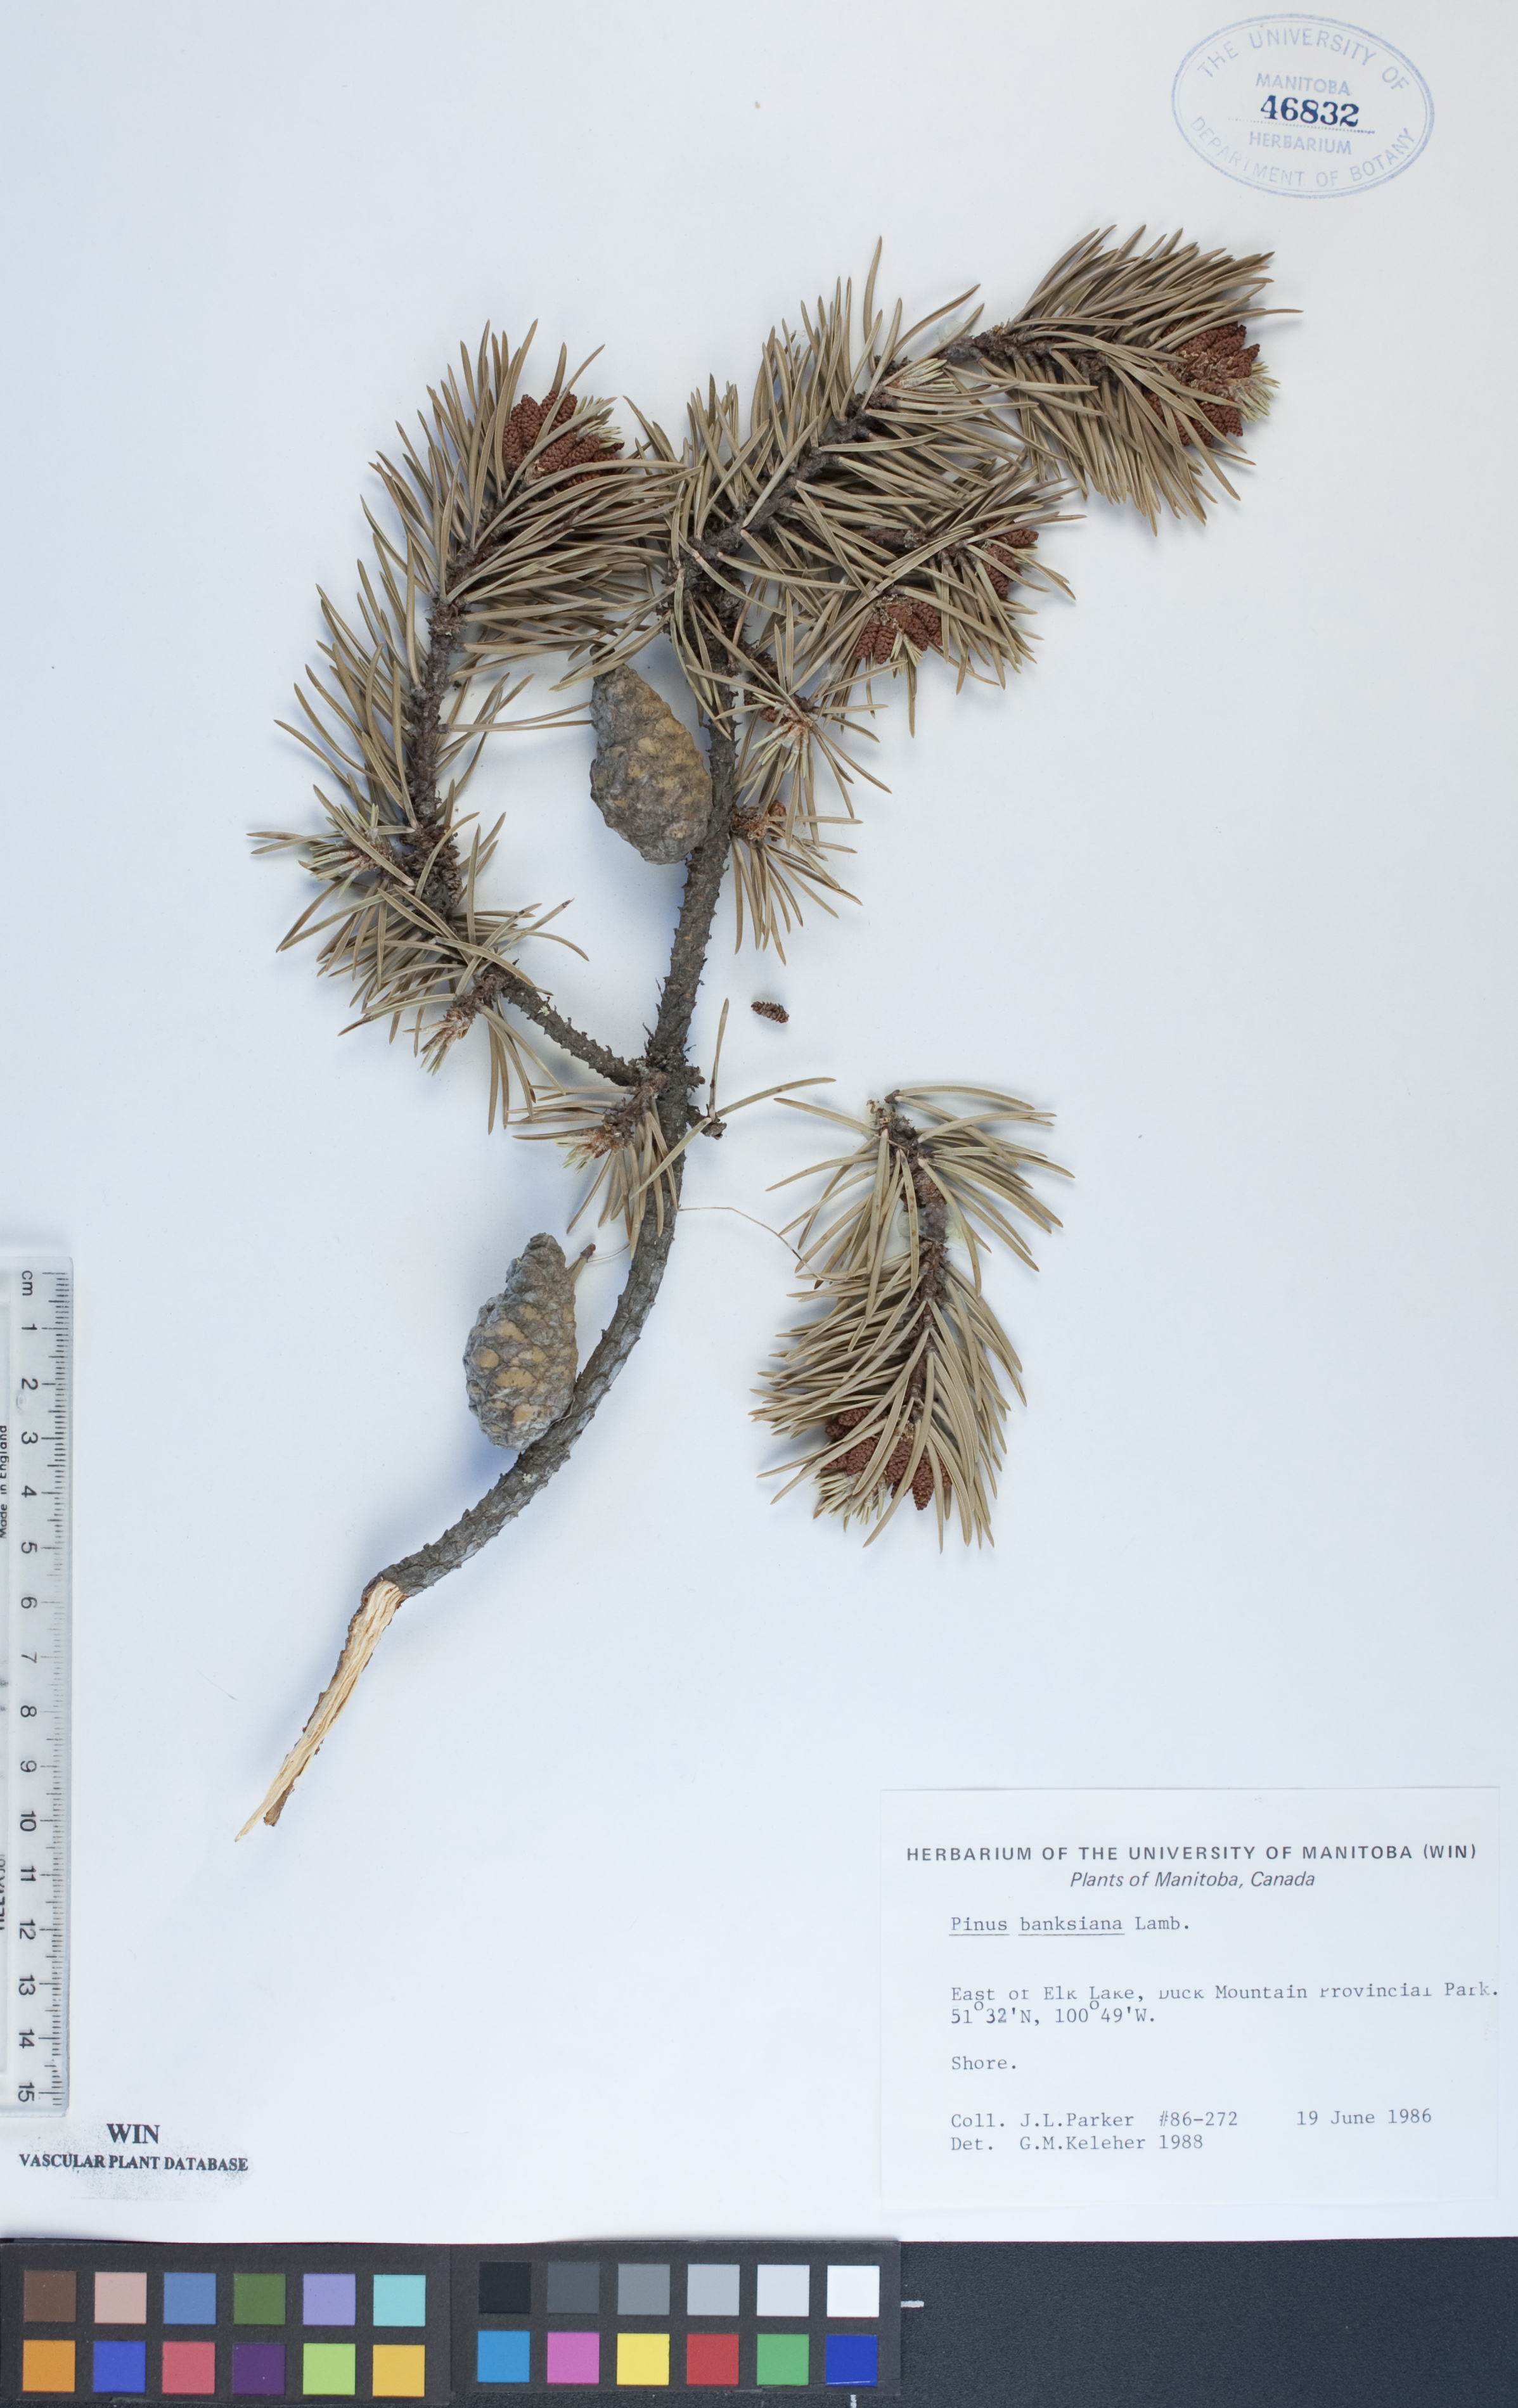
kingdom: Plantae
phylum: Tracheophyta
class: Pinopsida
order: Pinales
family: Pinaceae
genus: Pinus
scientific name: Pinus banksiana
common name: Jack pine
